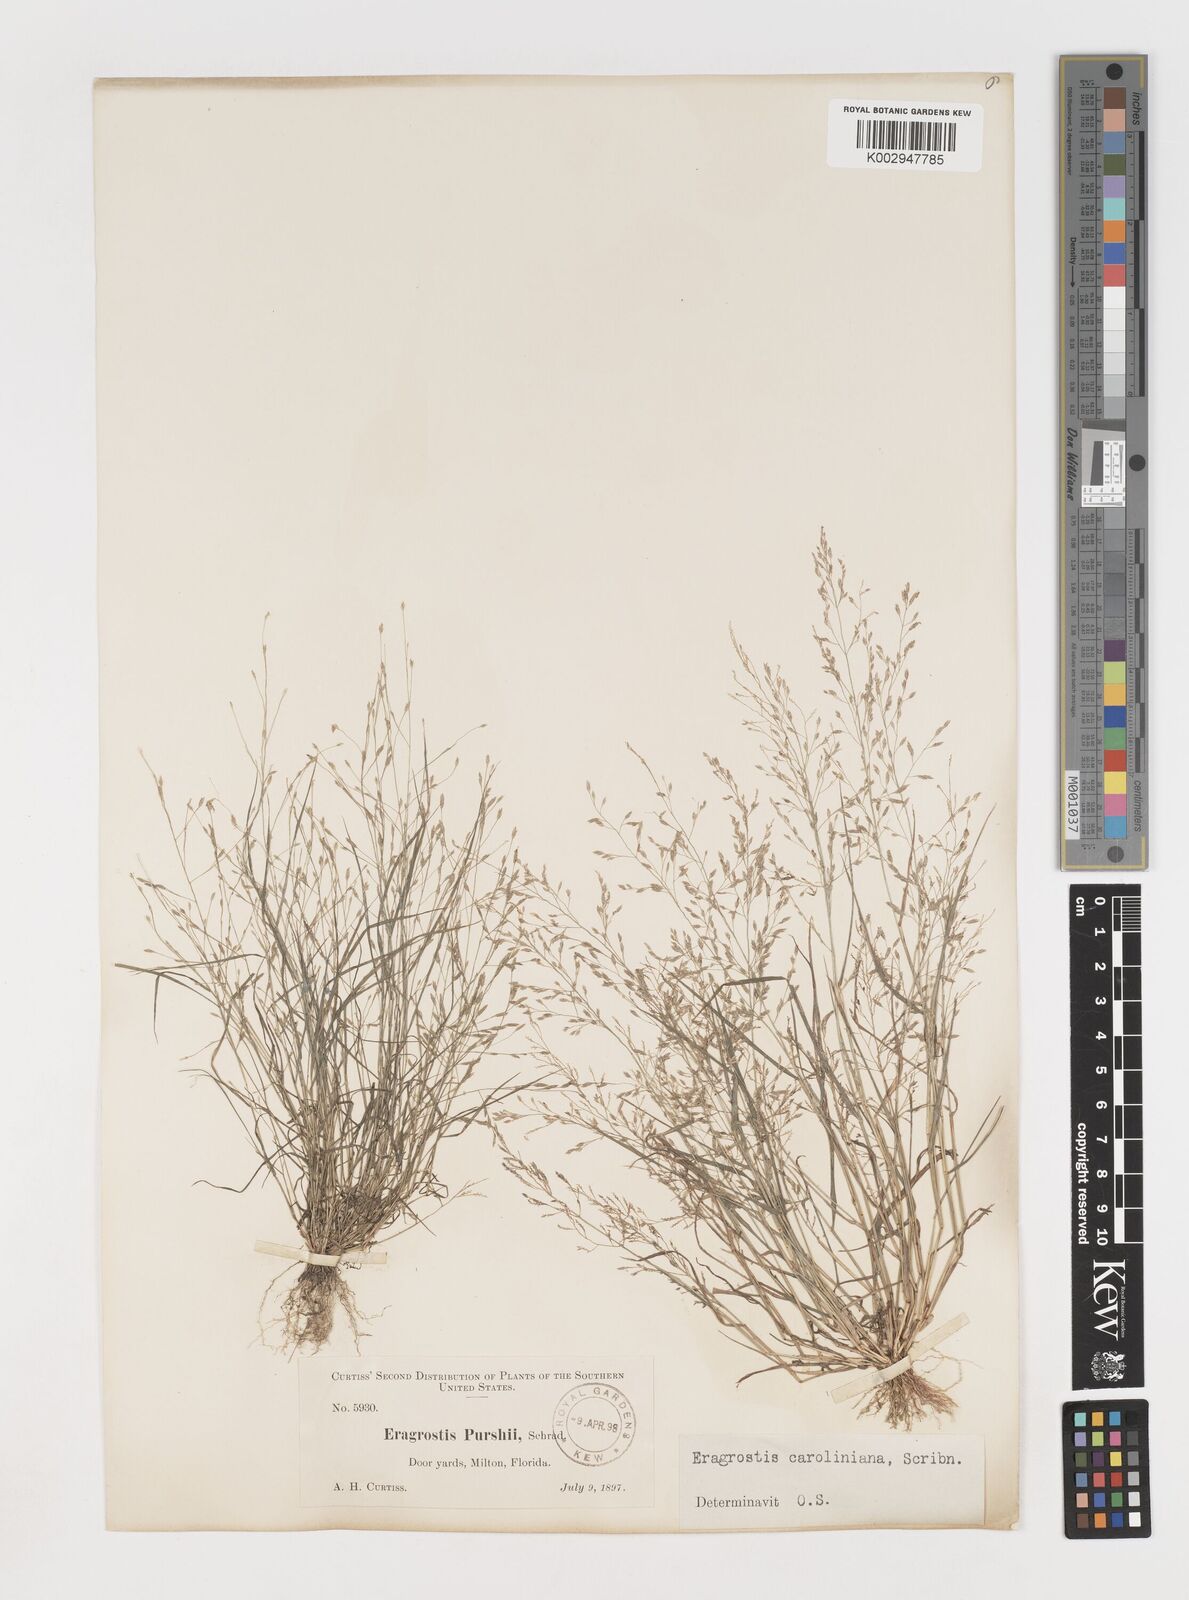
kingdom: Plantae
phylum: Tracheophyta
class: Liliopsida
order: Poales
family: Poaceae
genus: Eragrostis
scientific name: Eragrostis pectinacea
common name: Tufted lovegrass
